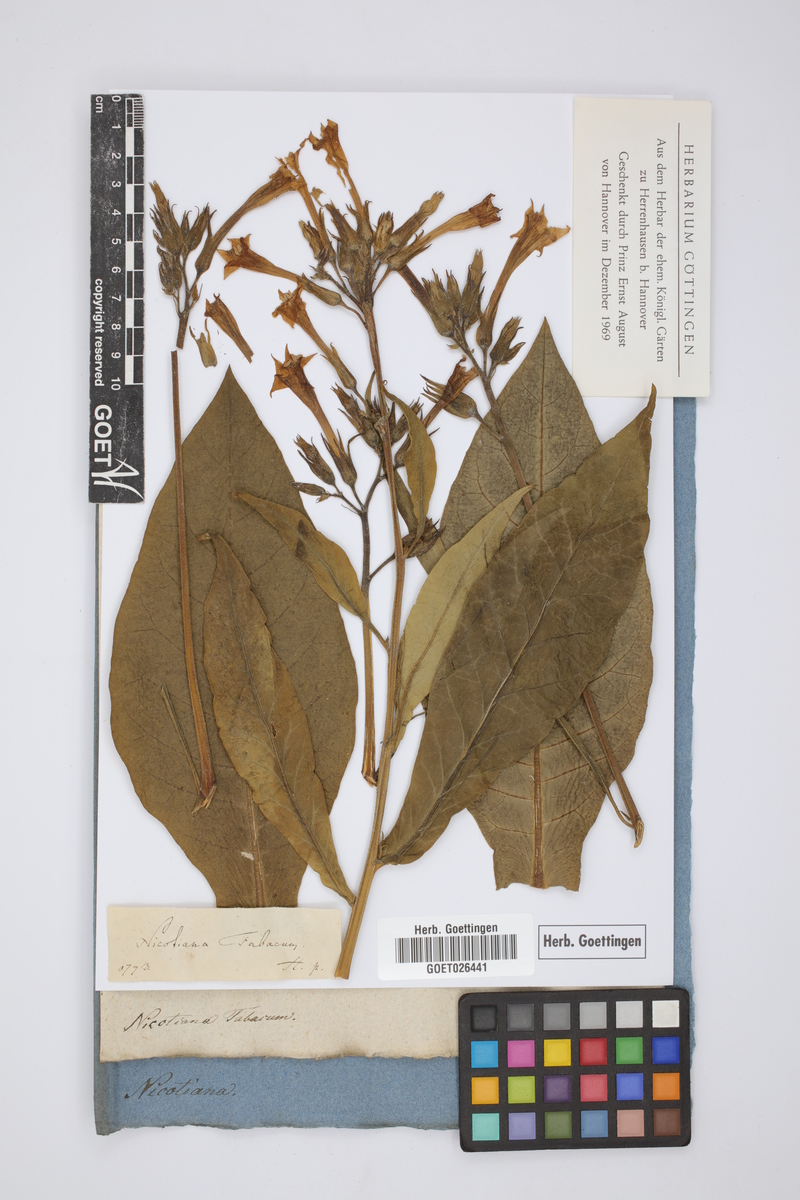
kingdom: Plantae
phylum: Tracheophyta
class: Magnoliopsida
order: Solanales
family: Solanaceae
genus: Nicotiana
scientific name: Nicotiana tabacum
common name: Tobacco
